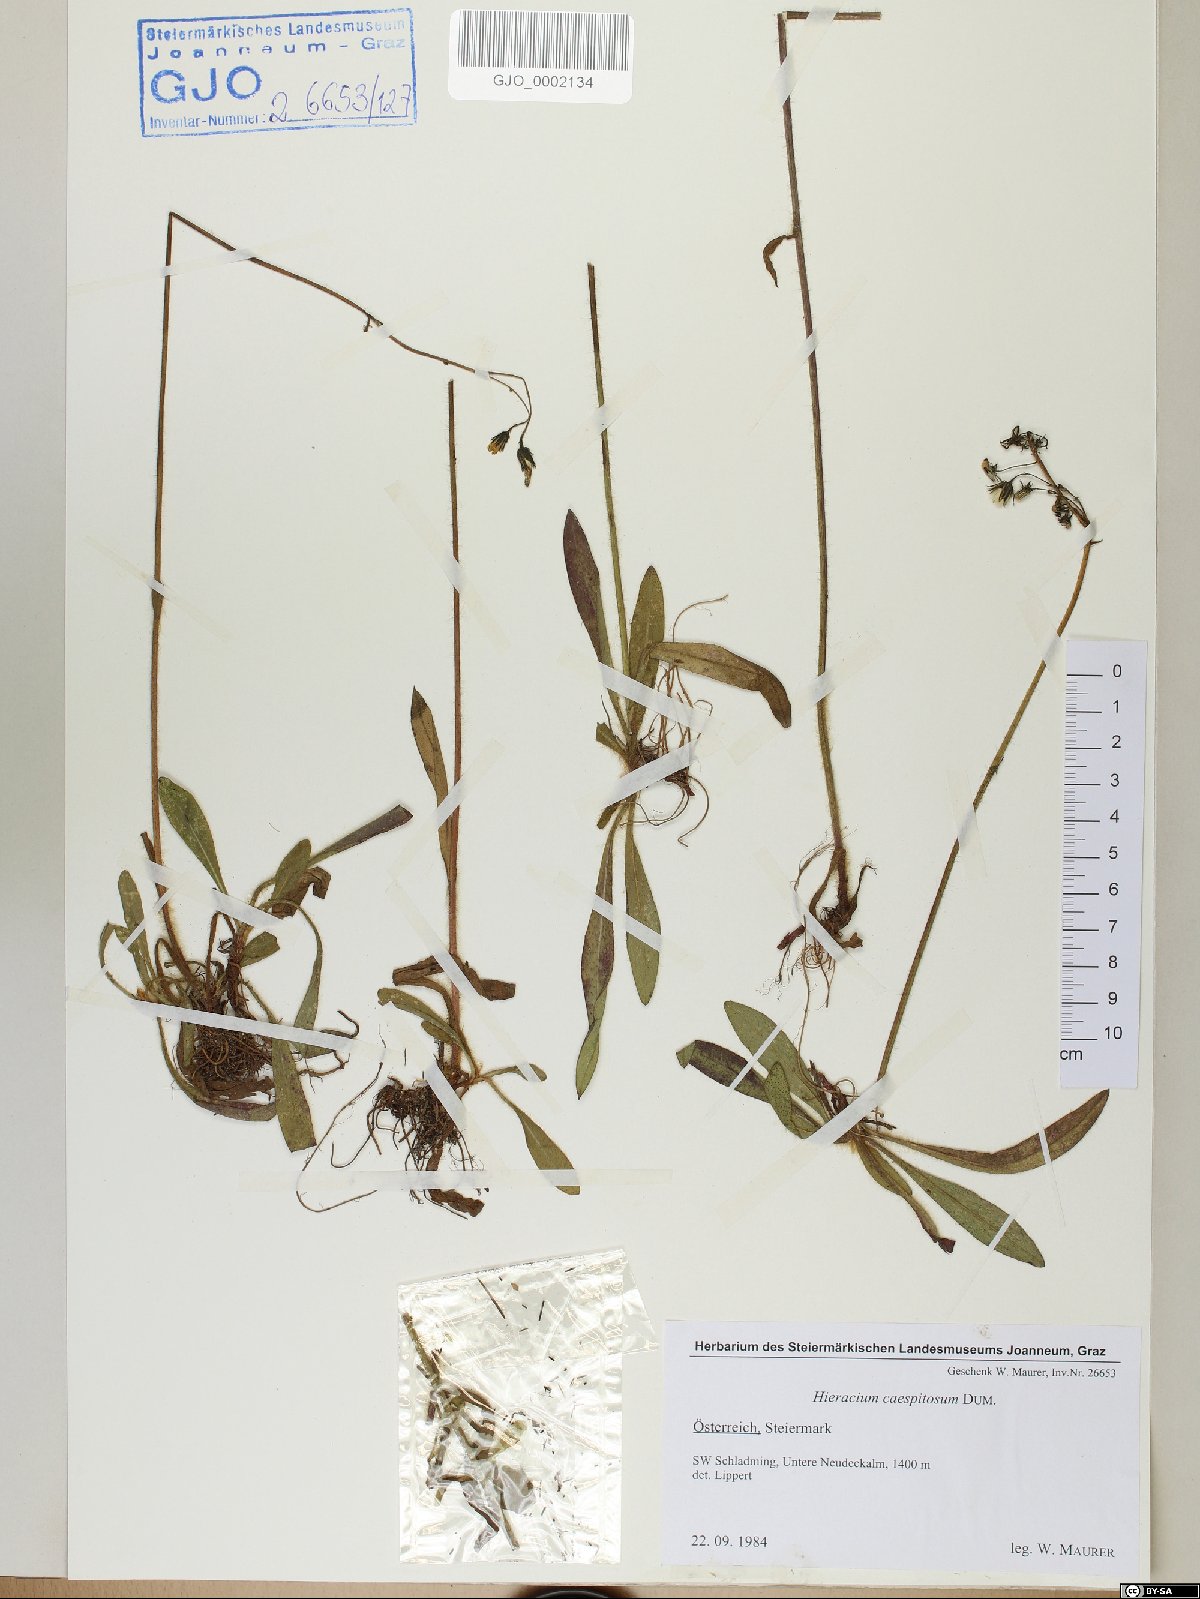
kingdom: Plantae
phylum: Tracheophyta
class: Magnoliopsida
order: Asterales
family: Asteraceae
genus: Pilosella
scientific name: Pilosella caespitosa
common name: Yellow fox-and-cubs
